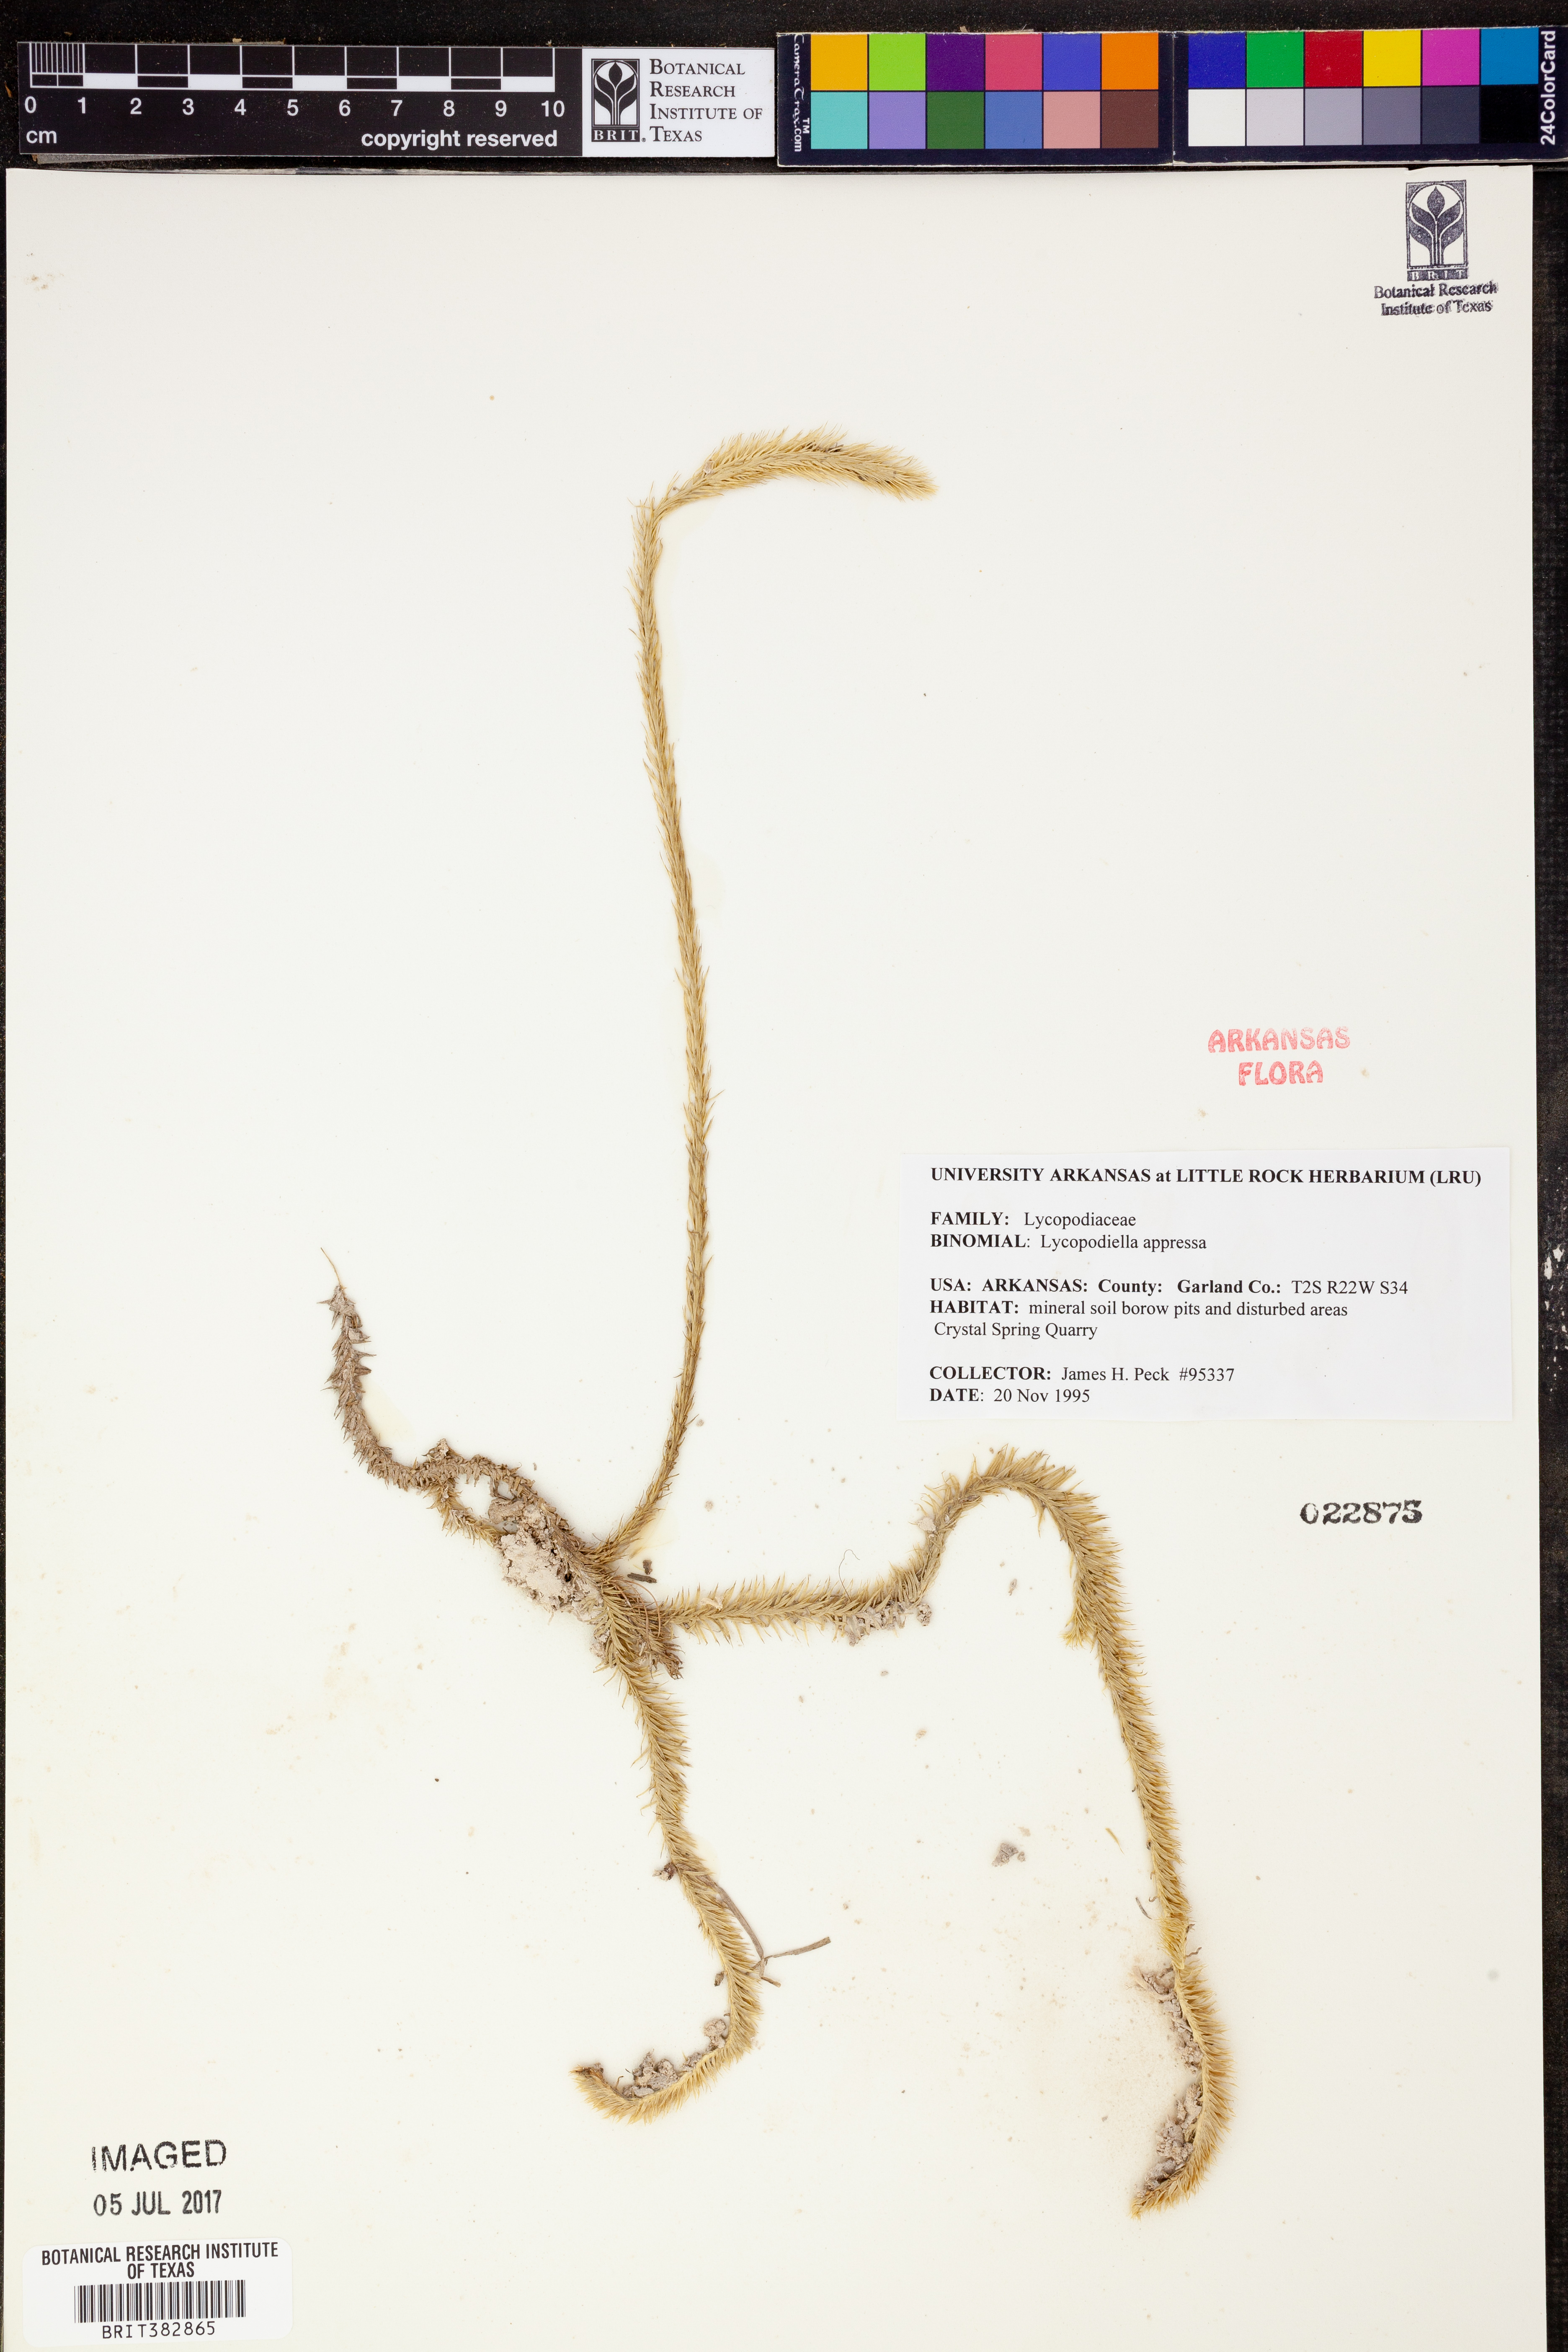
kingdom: Plantae
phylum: Tracheophyta
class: Lycopodiopsida
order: Lycopodiales
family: Lycopodiaceae
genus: Lycopodiella
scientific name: Lycopodiella appressa
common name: Appressed bog clubmoss
